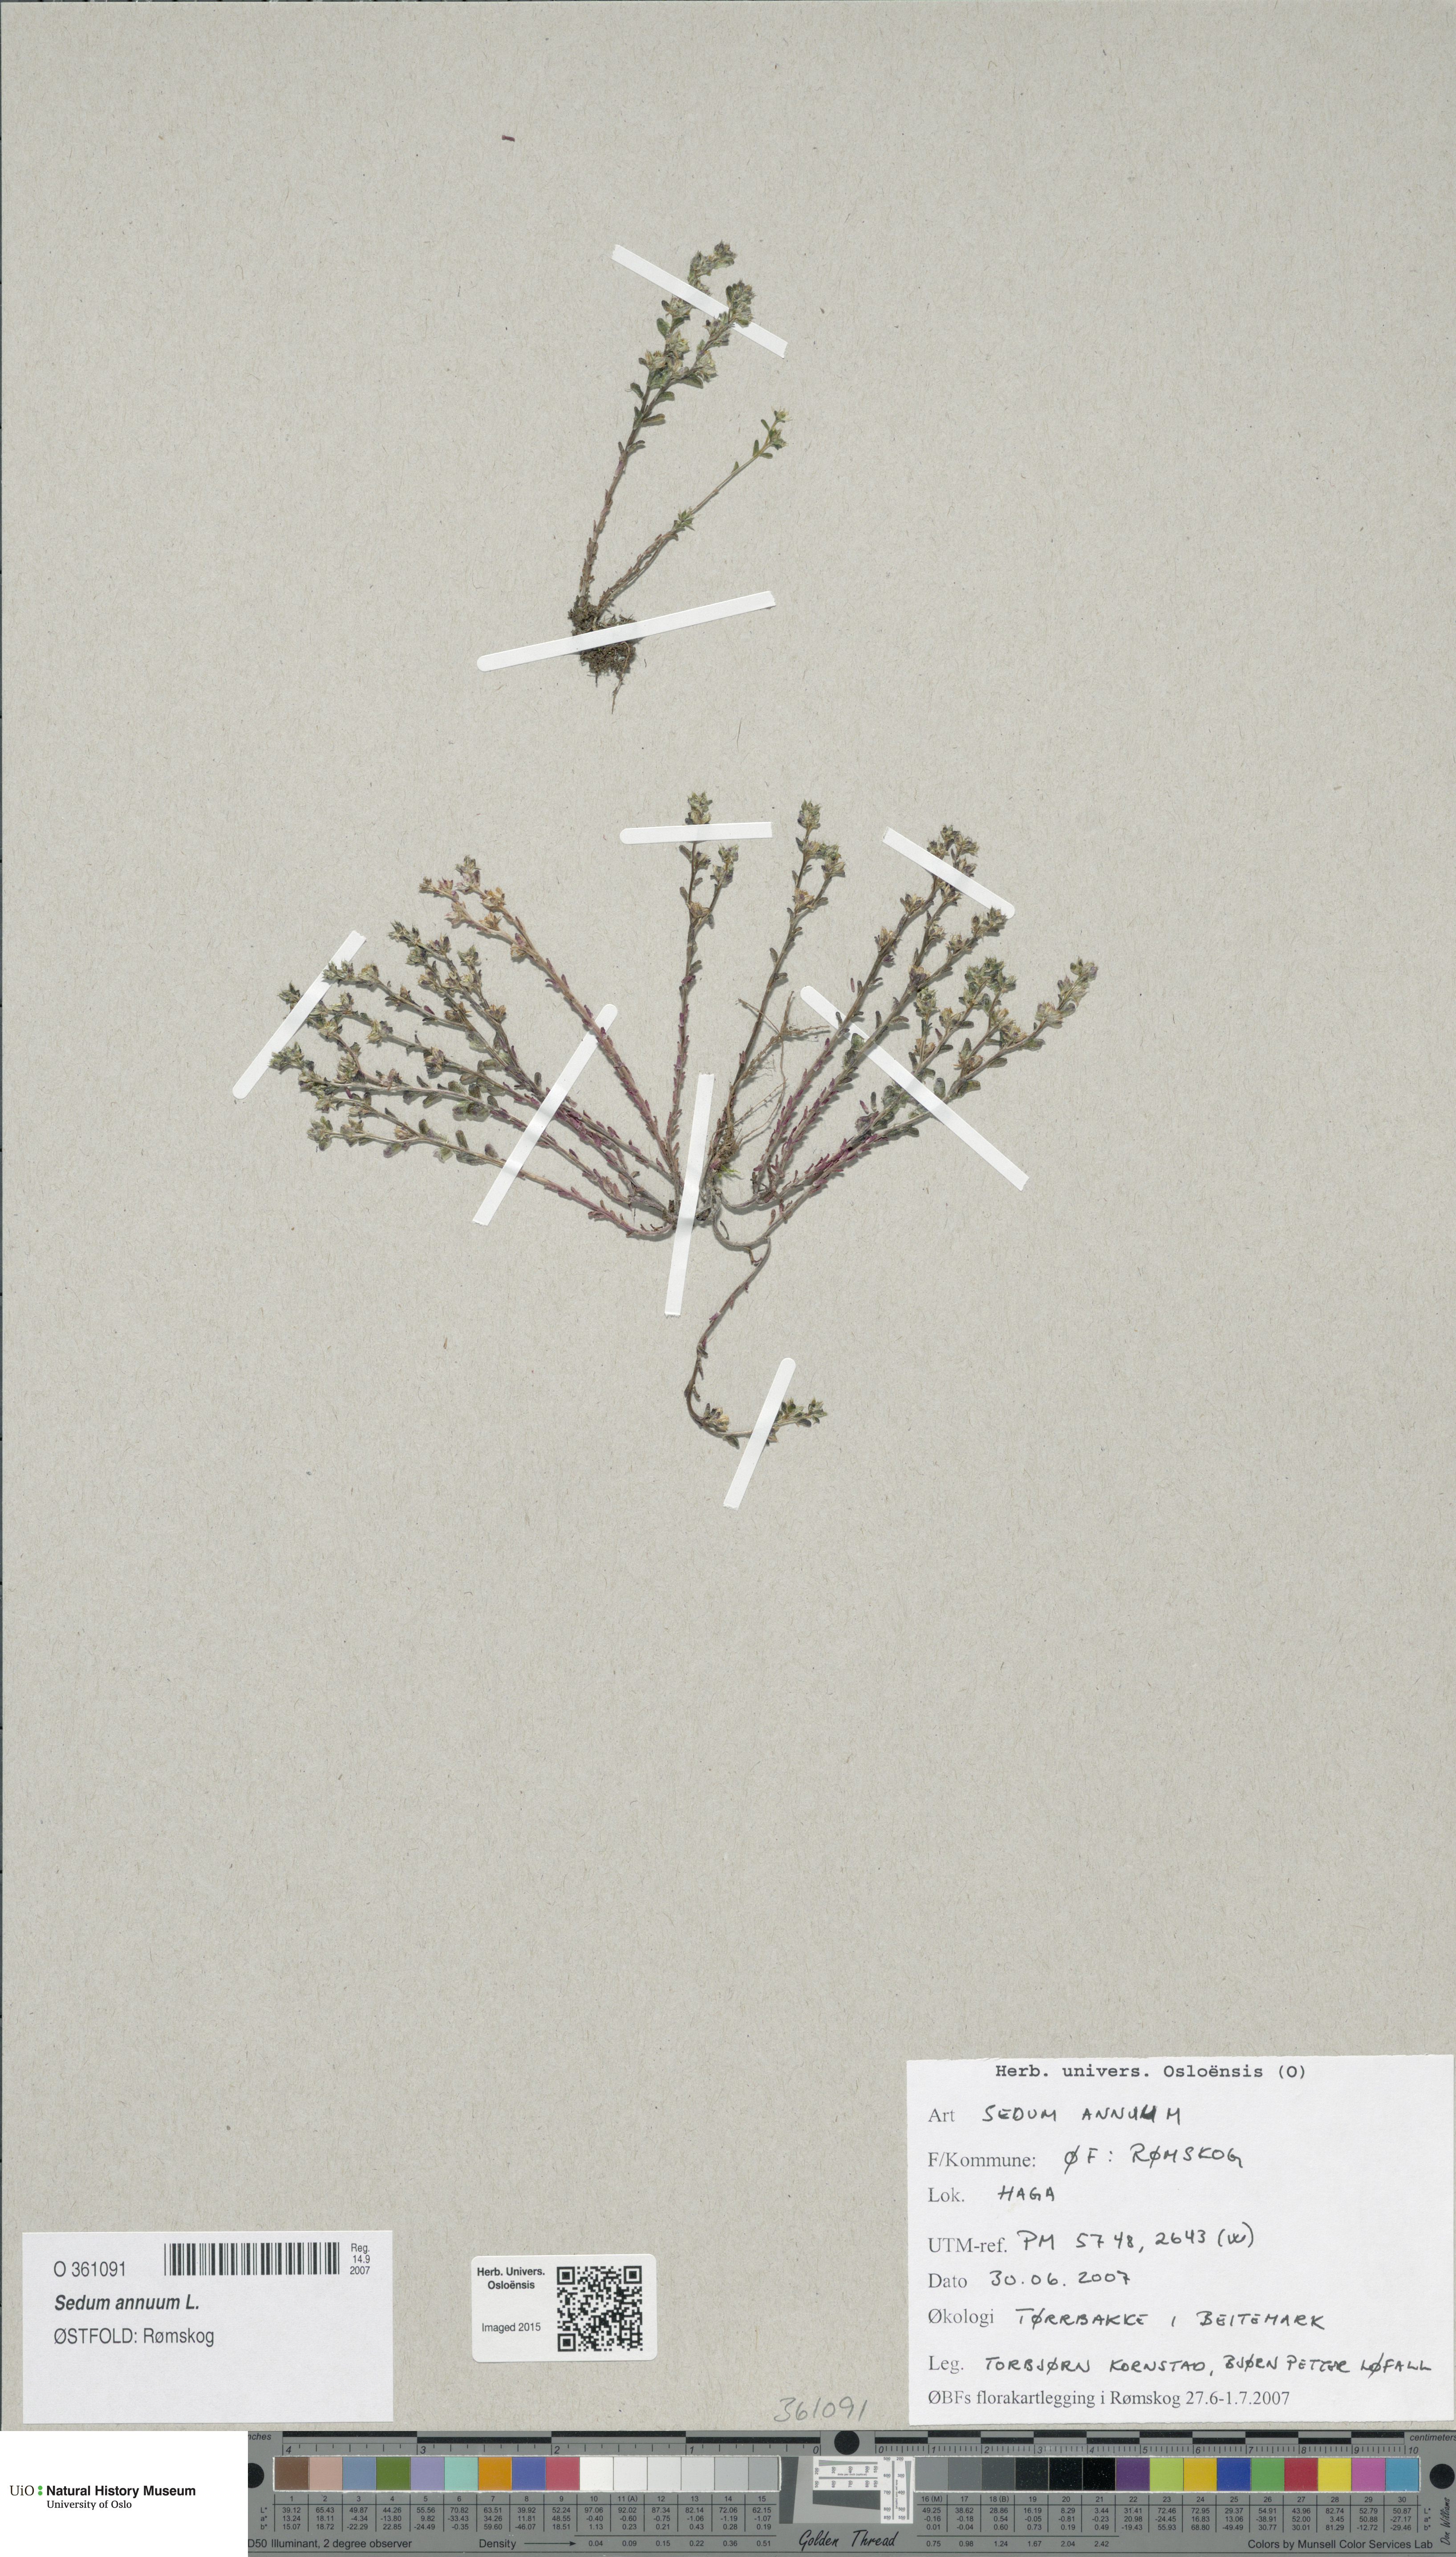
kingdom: Plantae
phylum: Tracheophyta
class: Magnoliopsida
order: Saxifragales
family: Crassulaceae
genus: Sedum
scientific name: Sedum annuum
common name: Annual stonecrop
